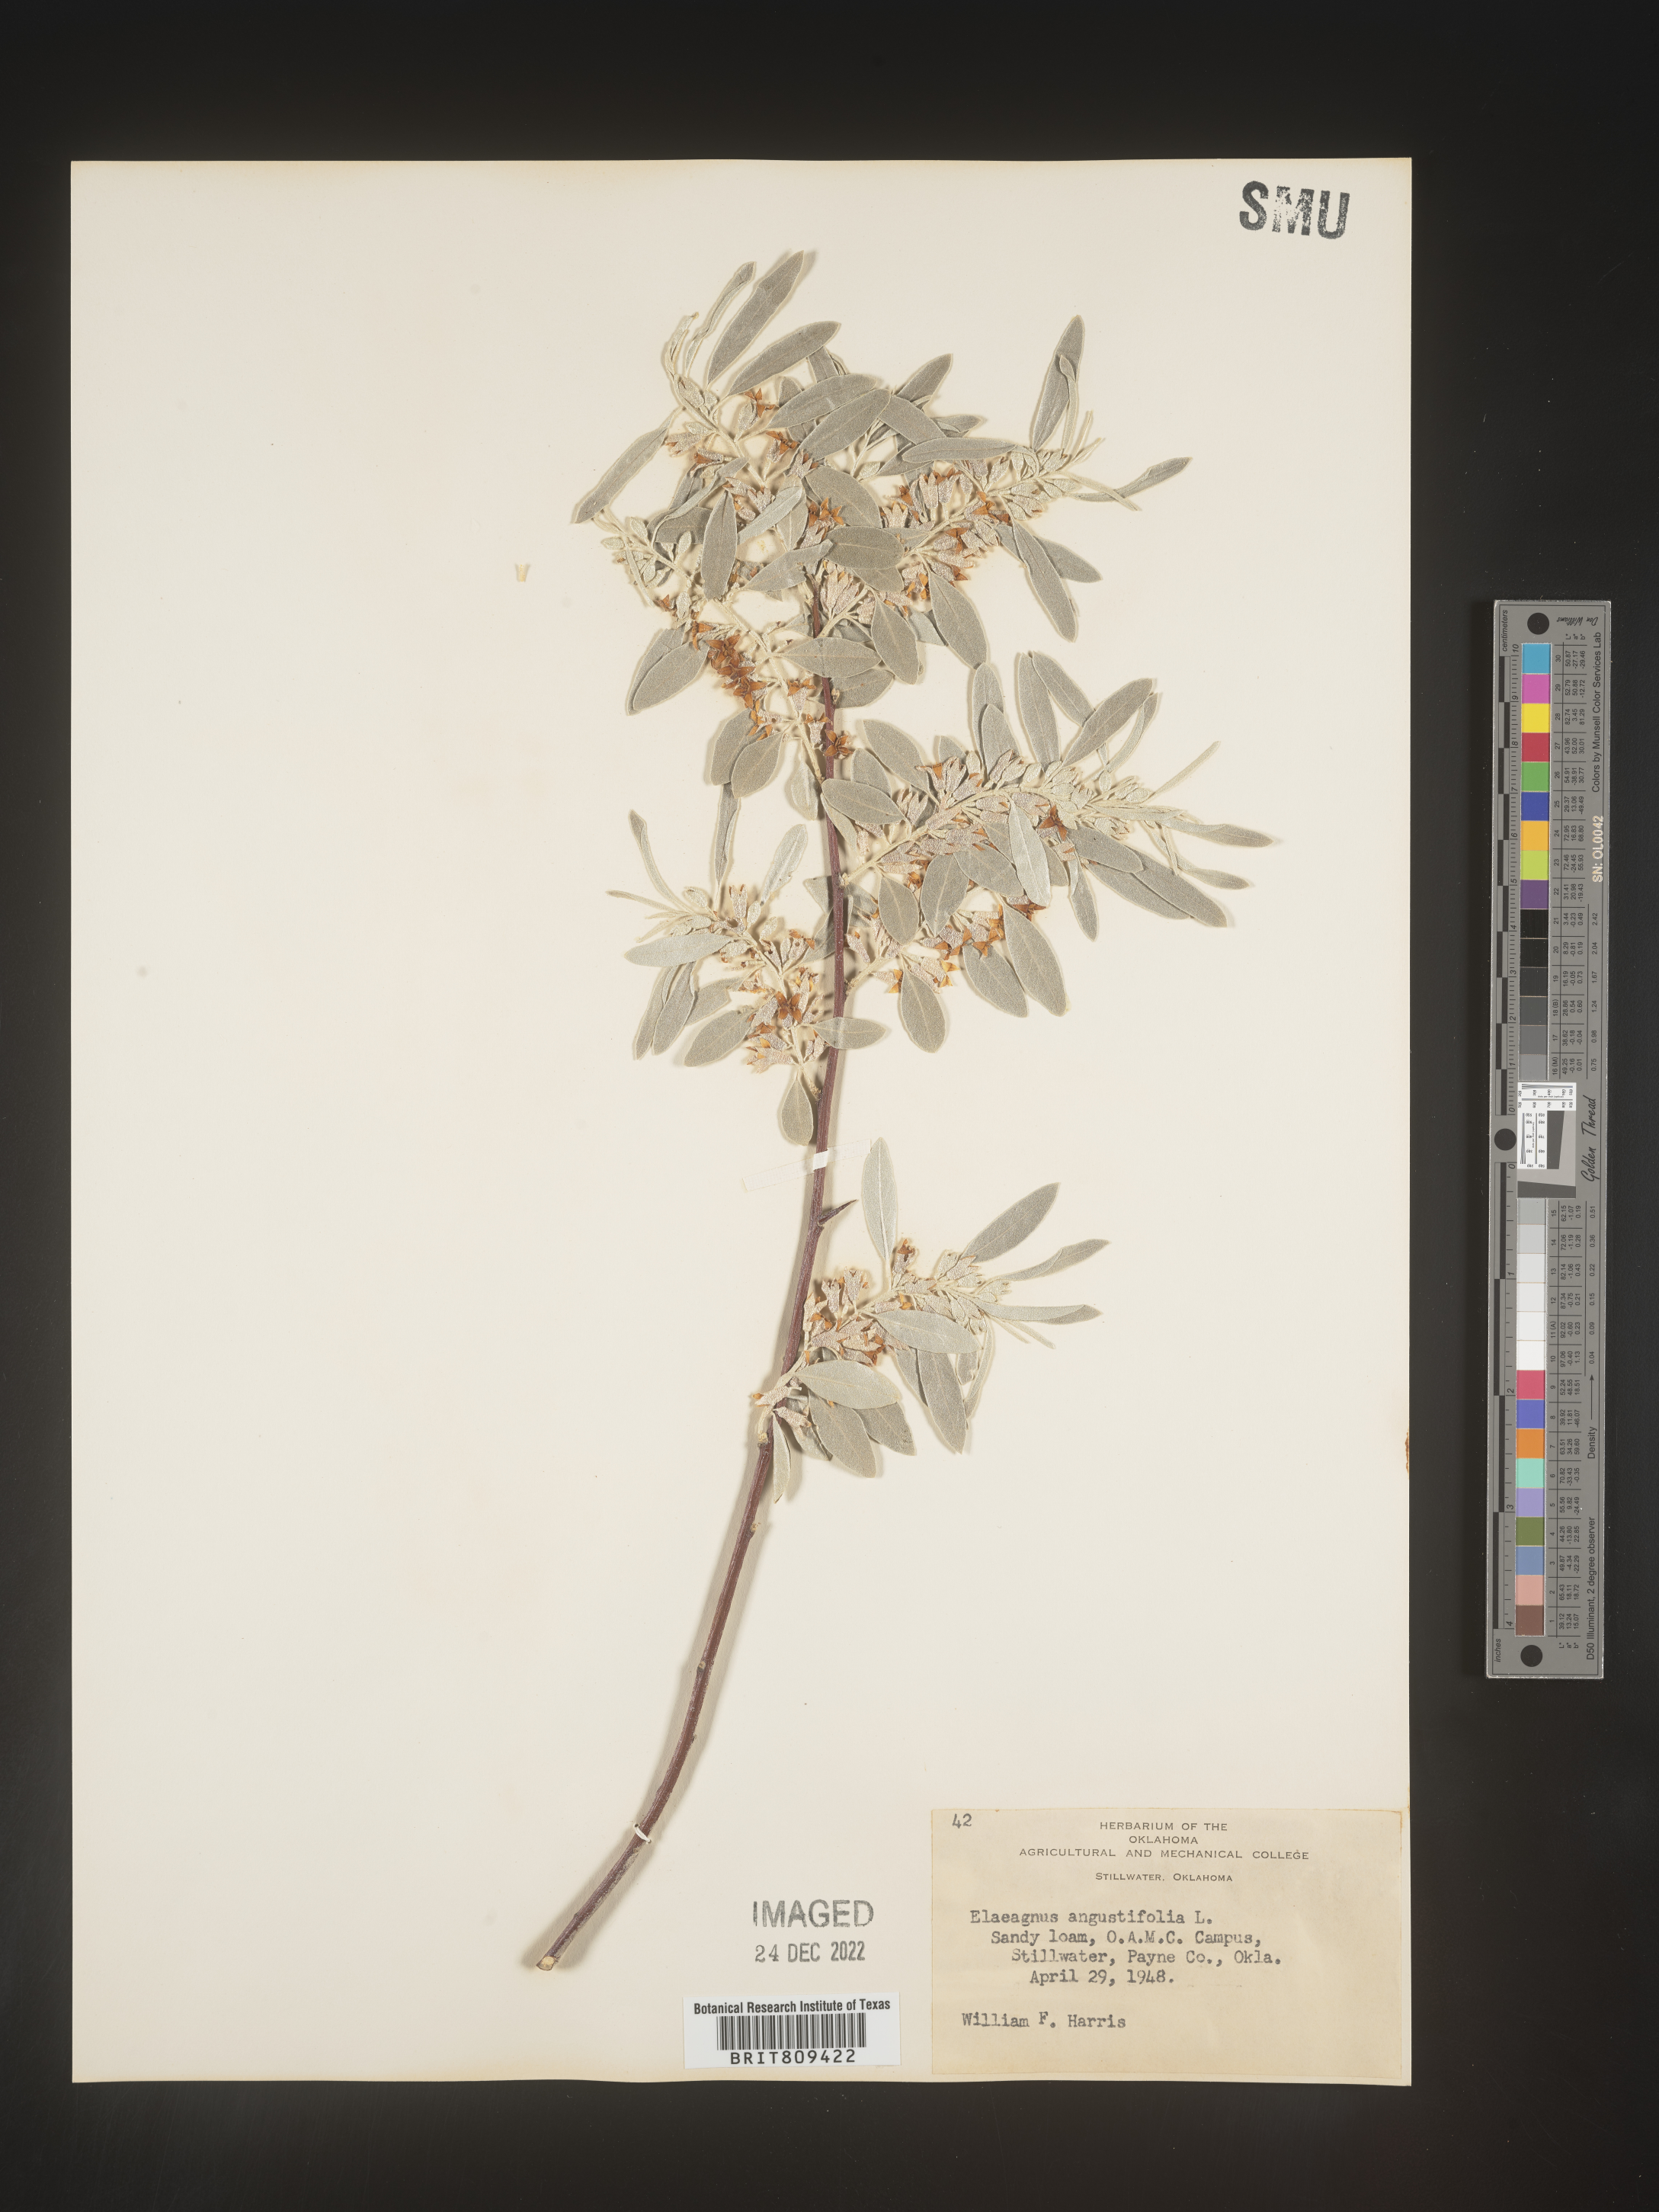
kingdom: Plantae
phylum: Tracheophyta
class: Magnoliopsida
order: Rosales
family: Elaeagnaceae
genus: Elaeagnus
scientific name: Elaeagnus
